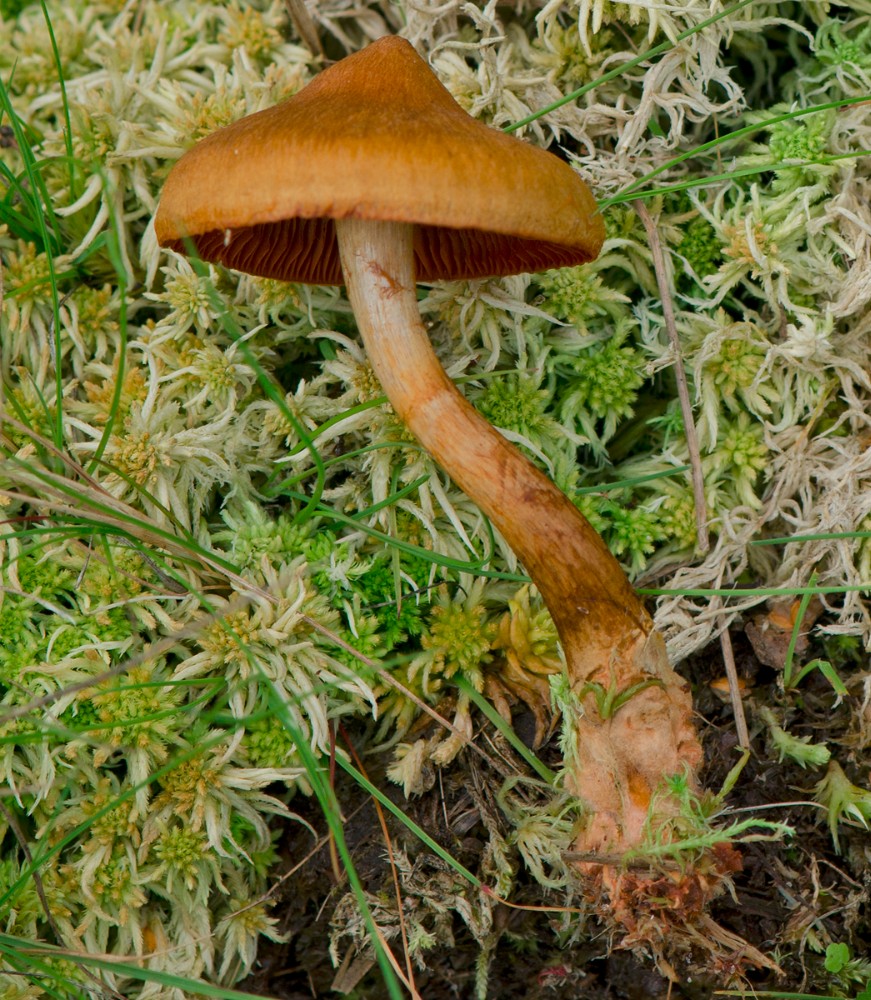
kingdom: Fungi
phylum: Basidiomycota
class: Agaricomycetes
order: Agaricales
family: Cortinariaceae
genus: Cortinarius
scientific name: Cortinarius
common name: cinnoberbladet slørhat
